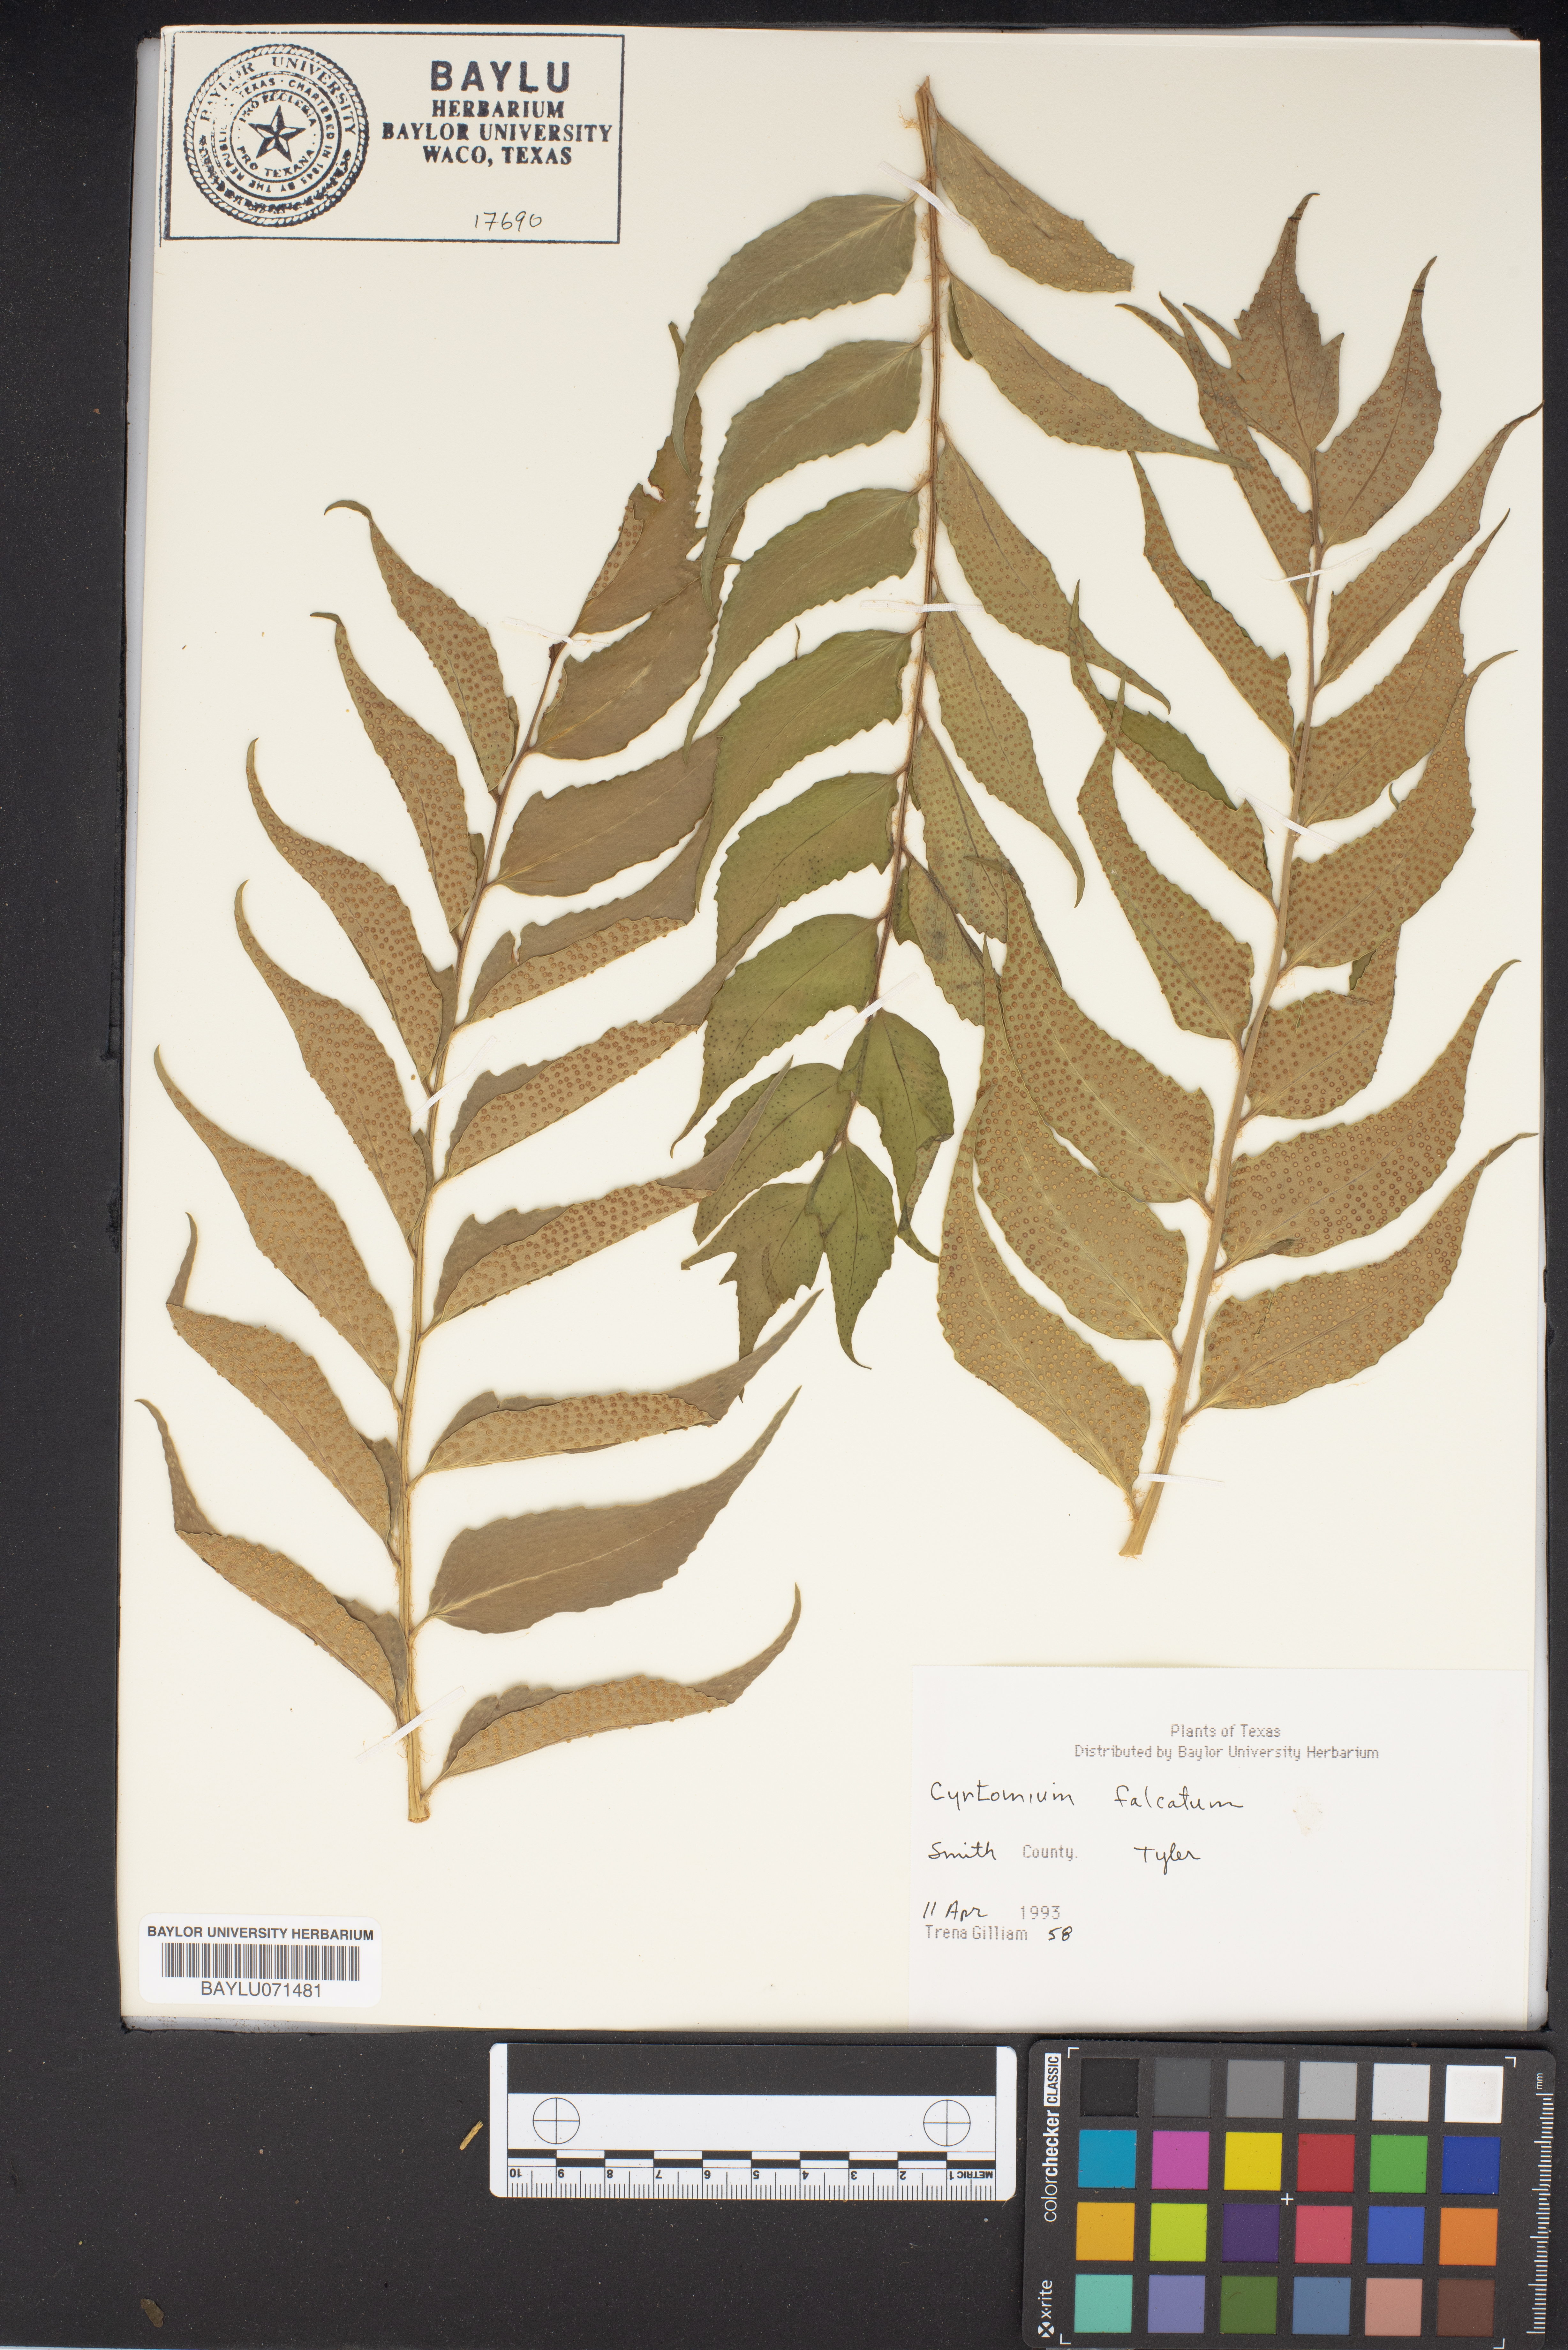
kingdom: Plantae
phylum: Tracheophyta
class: Polypodiopsida
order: Polypodiales
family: Dryopteridaceae
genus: Cyrtomium
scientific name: Cyrtomium falcatum
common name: House holly-fern
